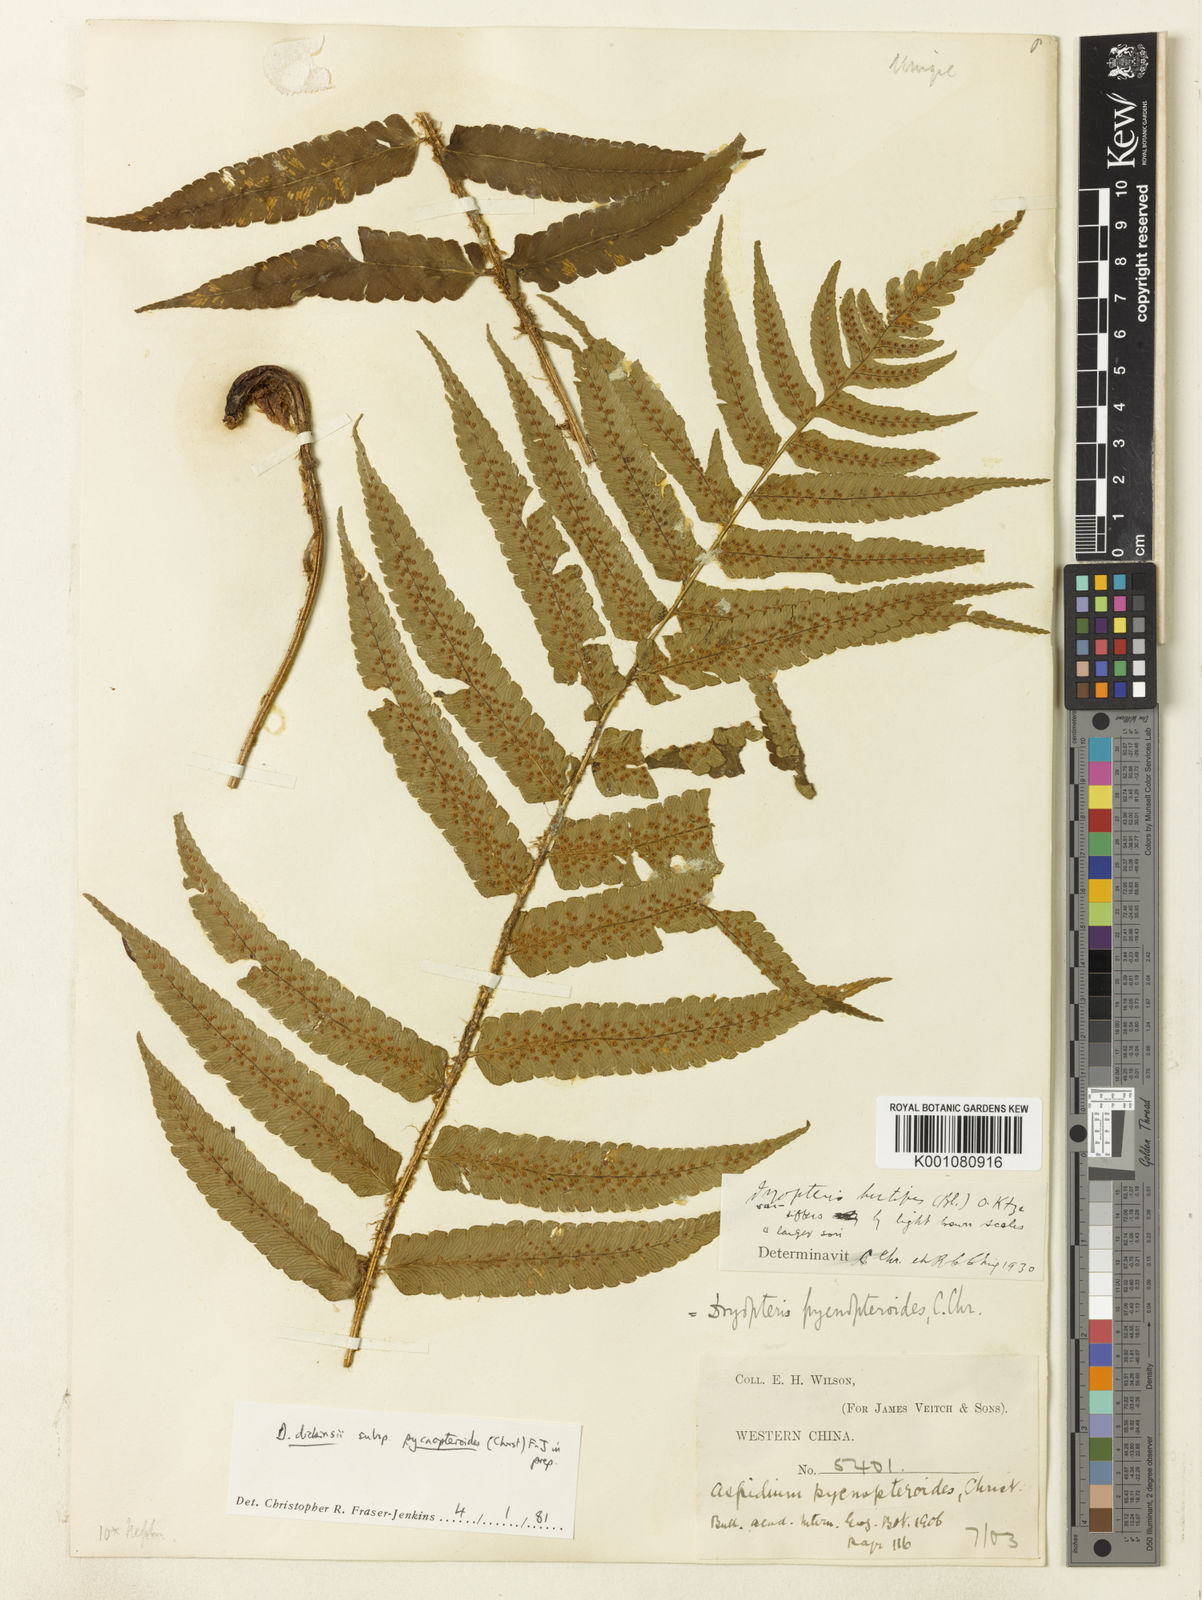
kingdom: Plantae
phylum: Tracheophyta
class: Polypodiopsida
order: Polypodiales
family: Dryopteridaceae
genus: Dryopteris
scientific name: Dryopteris pycnopteroides
